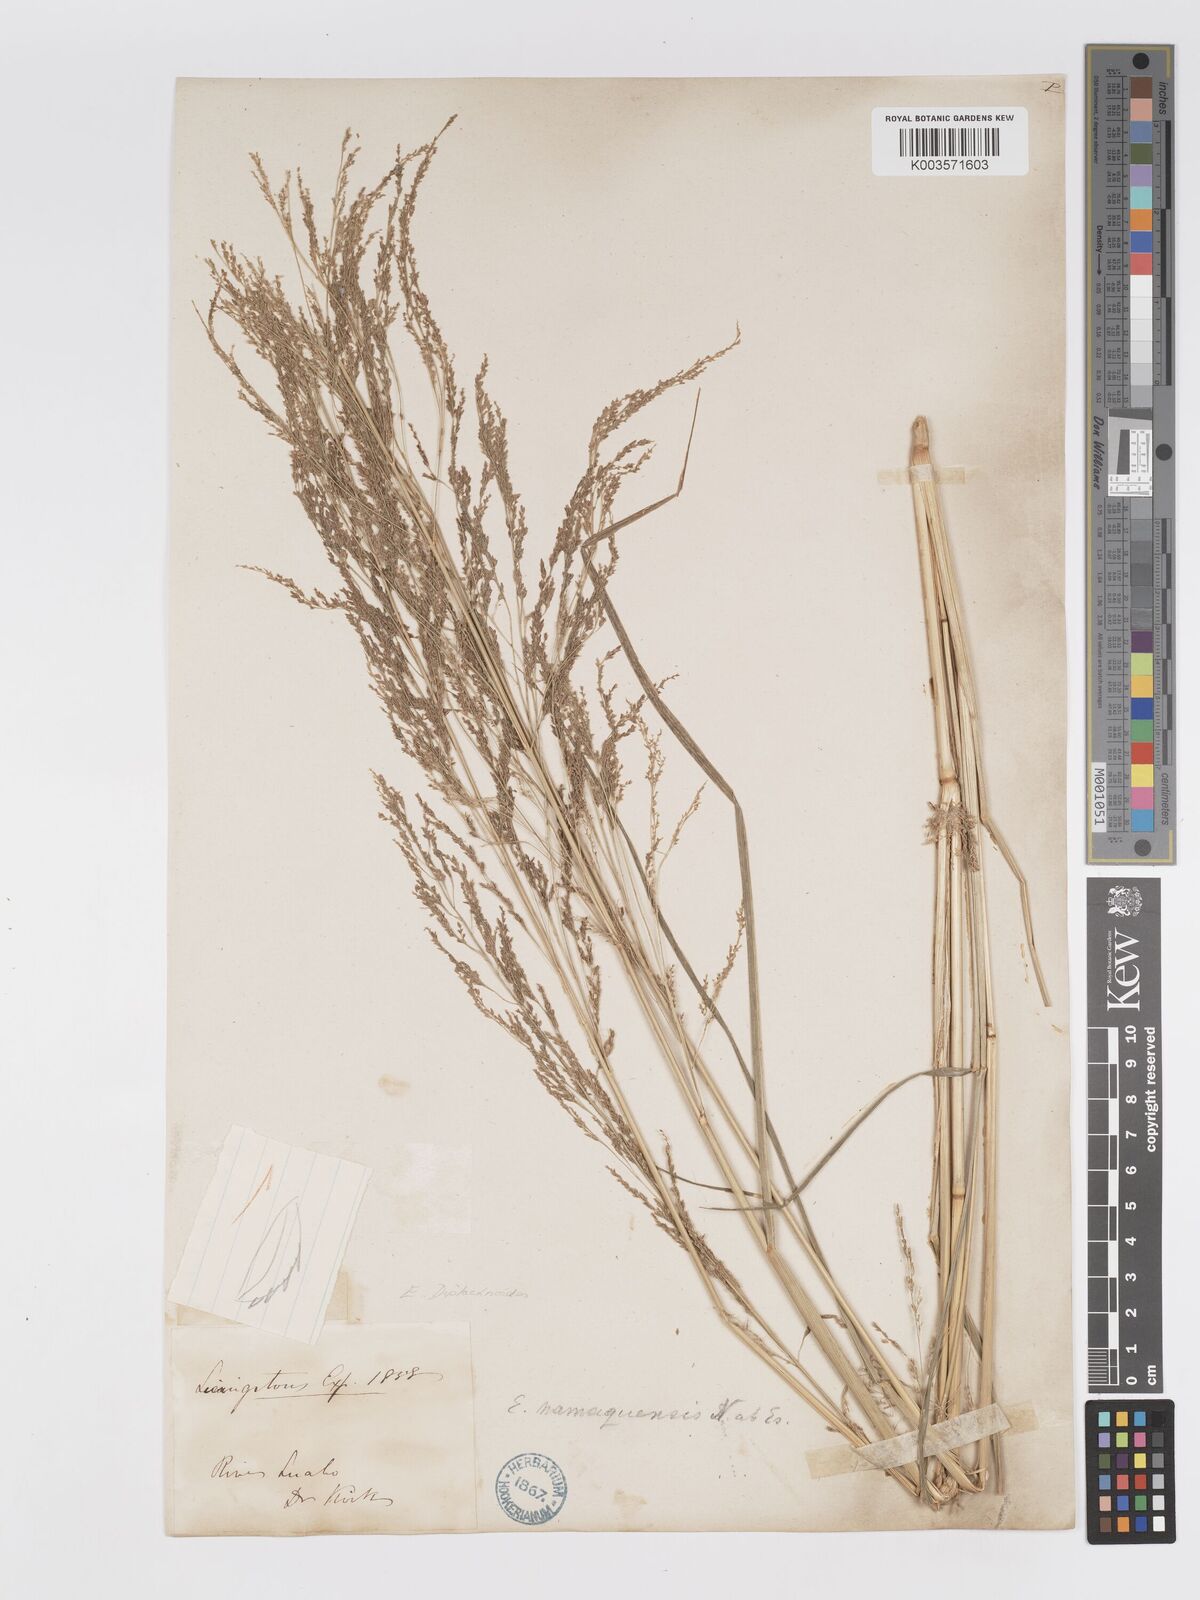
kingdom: Plantae
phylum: Tracheophyta
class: Liliopsida
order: Poales
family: Poaceae
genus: Eragrostis
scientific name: Eragrostis japonica
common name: Pond lovegrass
